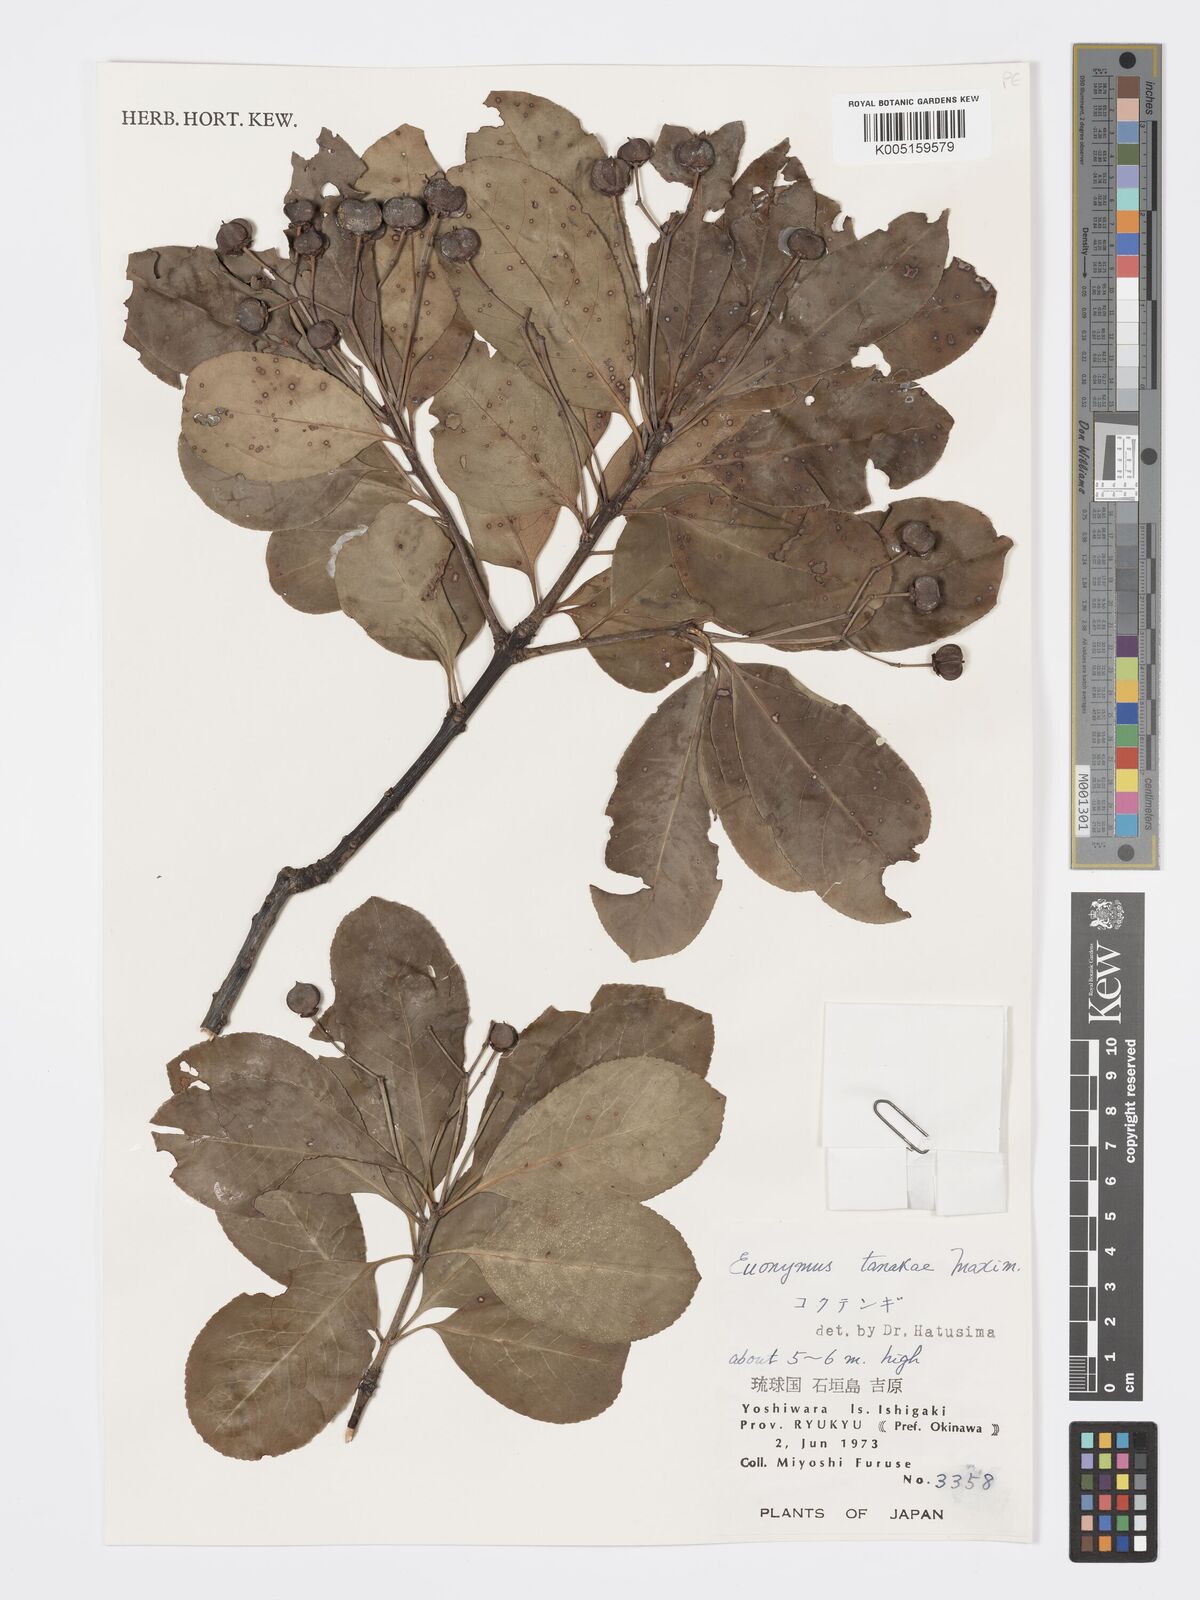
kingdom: Plantae
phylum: Tracheophyta
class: Magnoliopsida
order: Celastrales
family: Celastraceae
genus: Euonymus
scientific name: Euonymus carnosus
